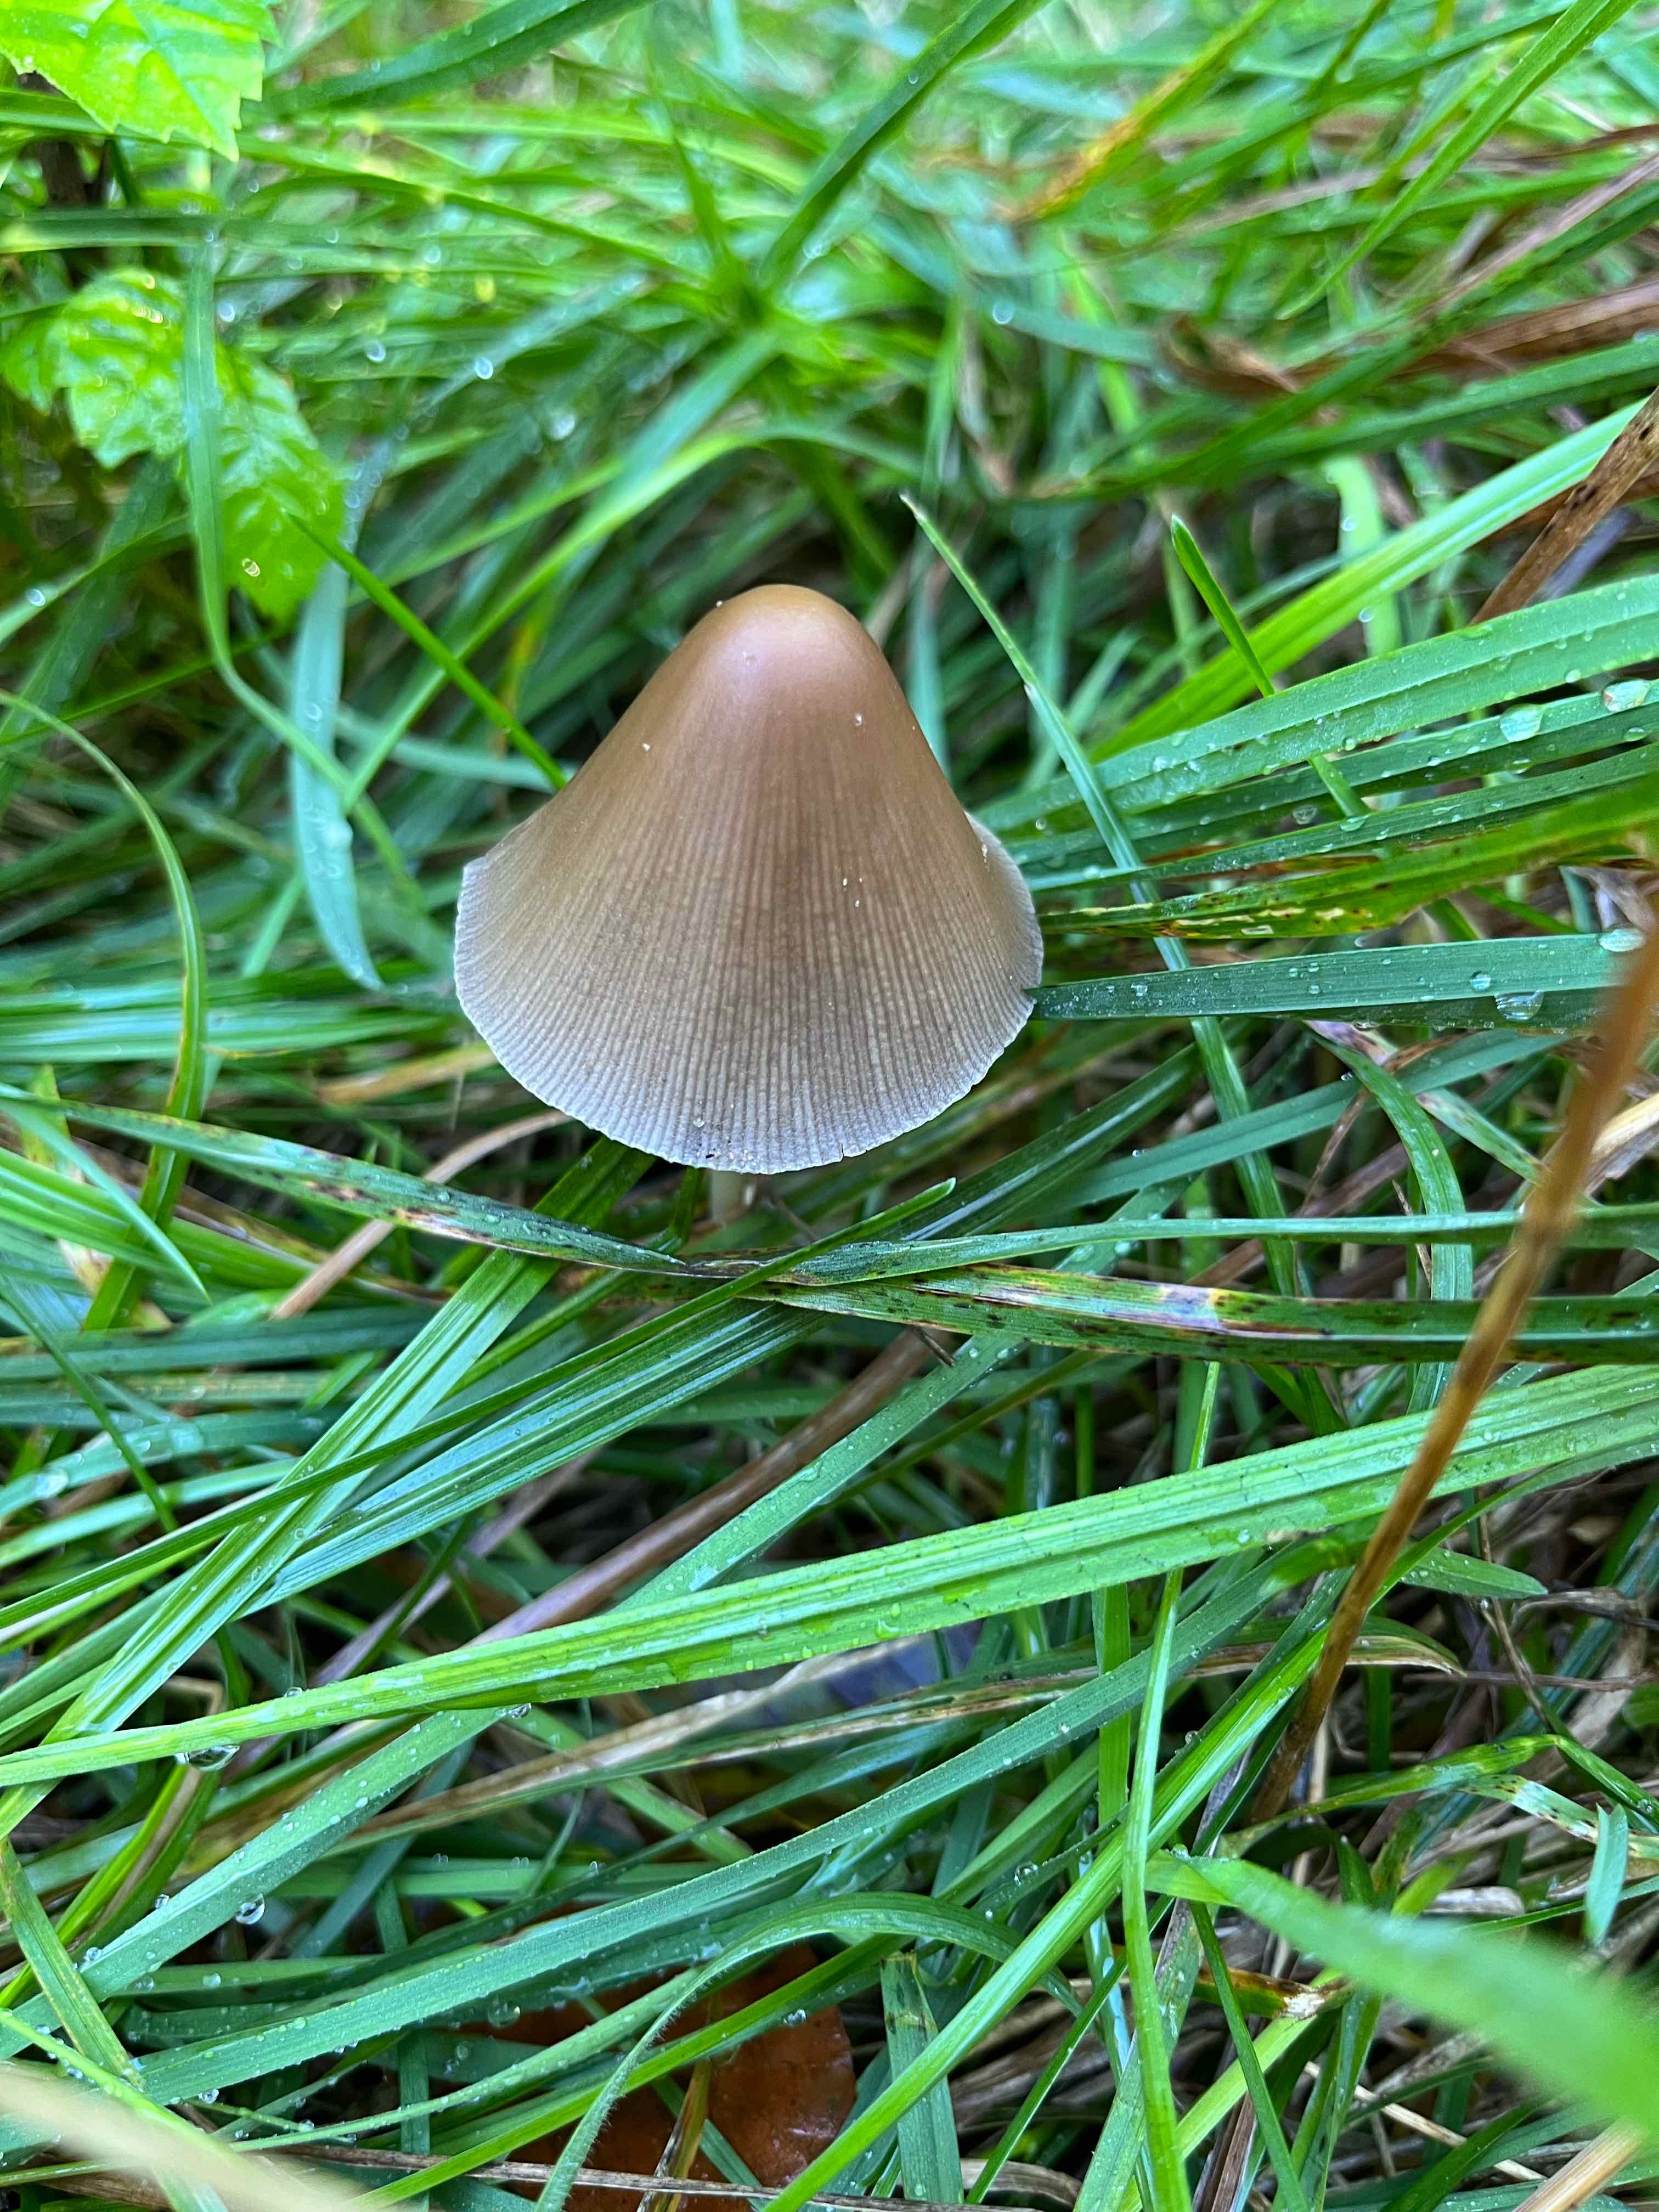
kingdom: Fungi
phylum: Basidiomycota
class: Agaricomycetes
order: Agaricales
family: Psathyrellaceae
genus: Parasola
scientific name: Parasola conopilea
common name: kegle-hjulhat
